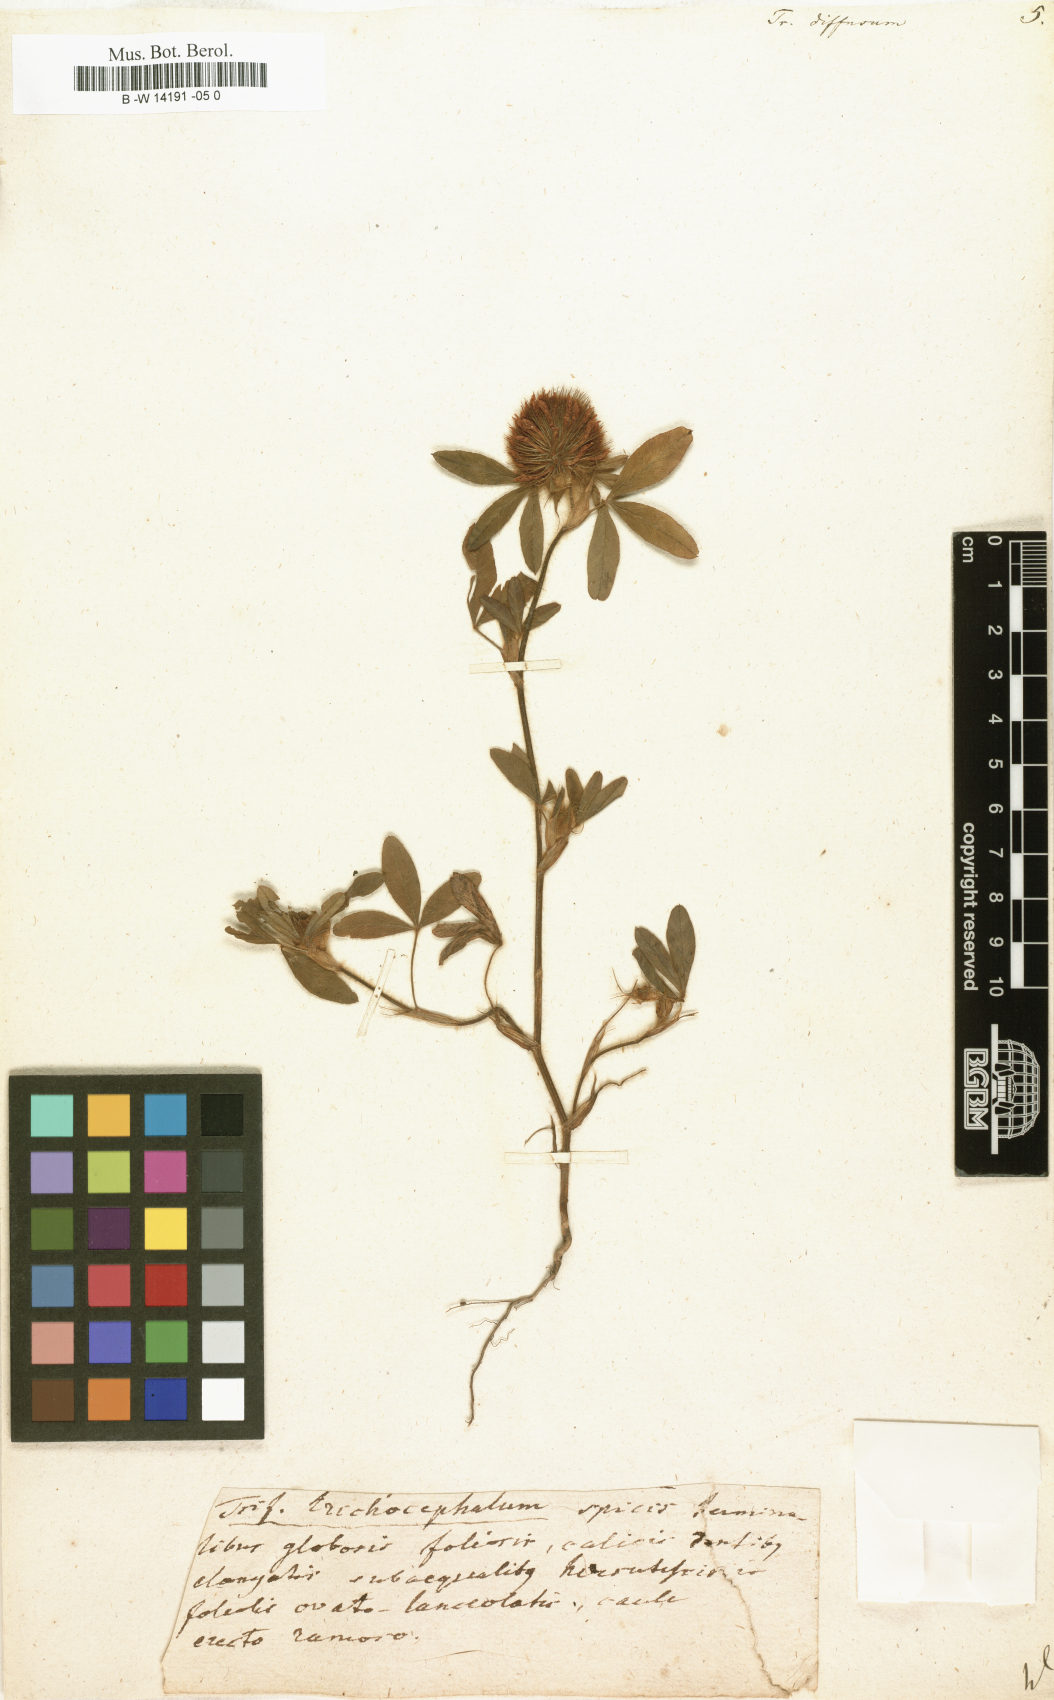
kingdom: Plantae
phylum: Tracheophyta
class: Magnoliopsida
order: Fabales
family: Fabaceae
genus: Trifolium
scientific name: Trifolium diffusum
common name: Diffuse clover
